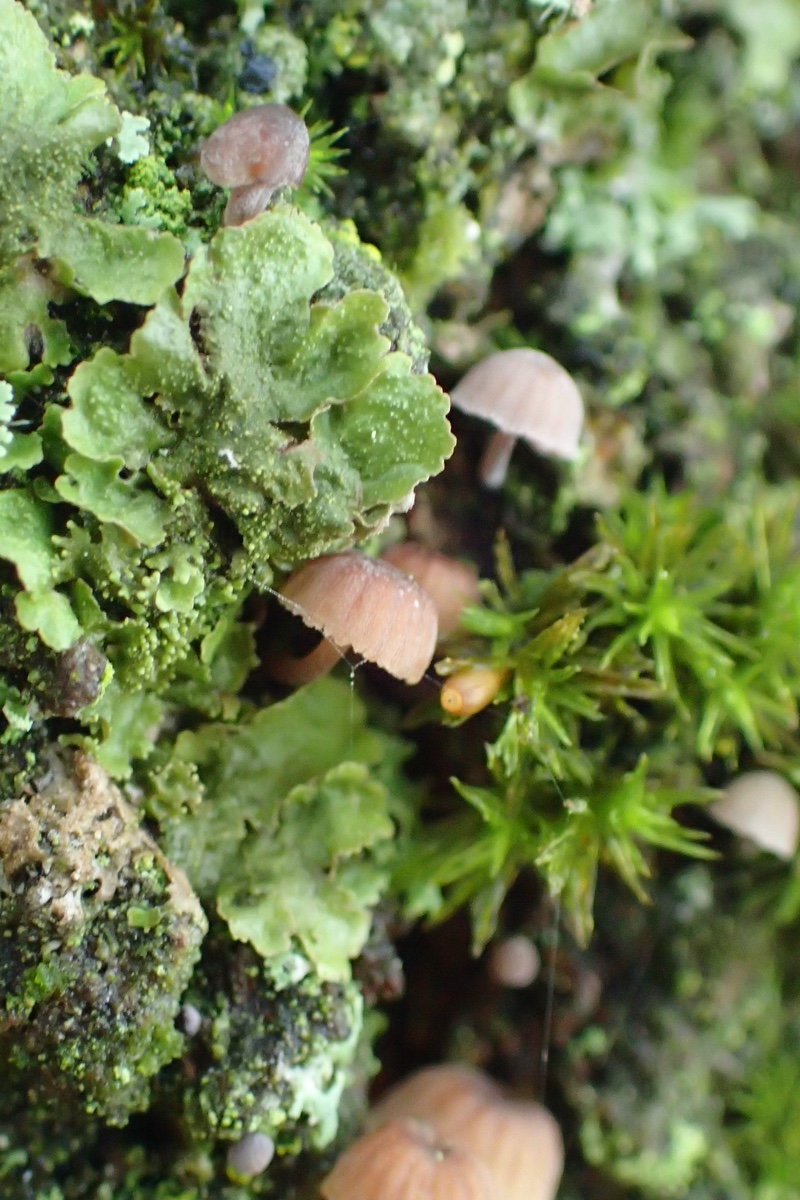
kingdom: Fungi
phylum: Basidiomycota
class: Agaricomycetes
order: Agaricales
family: Mycenaceae
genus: Mycena
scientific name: Mycena meliigena
